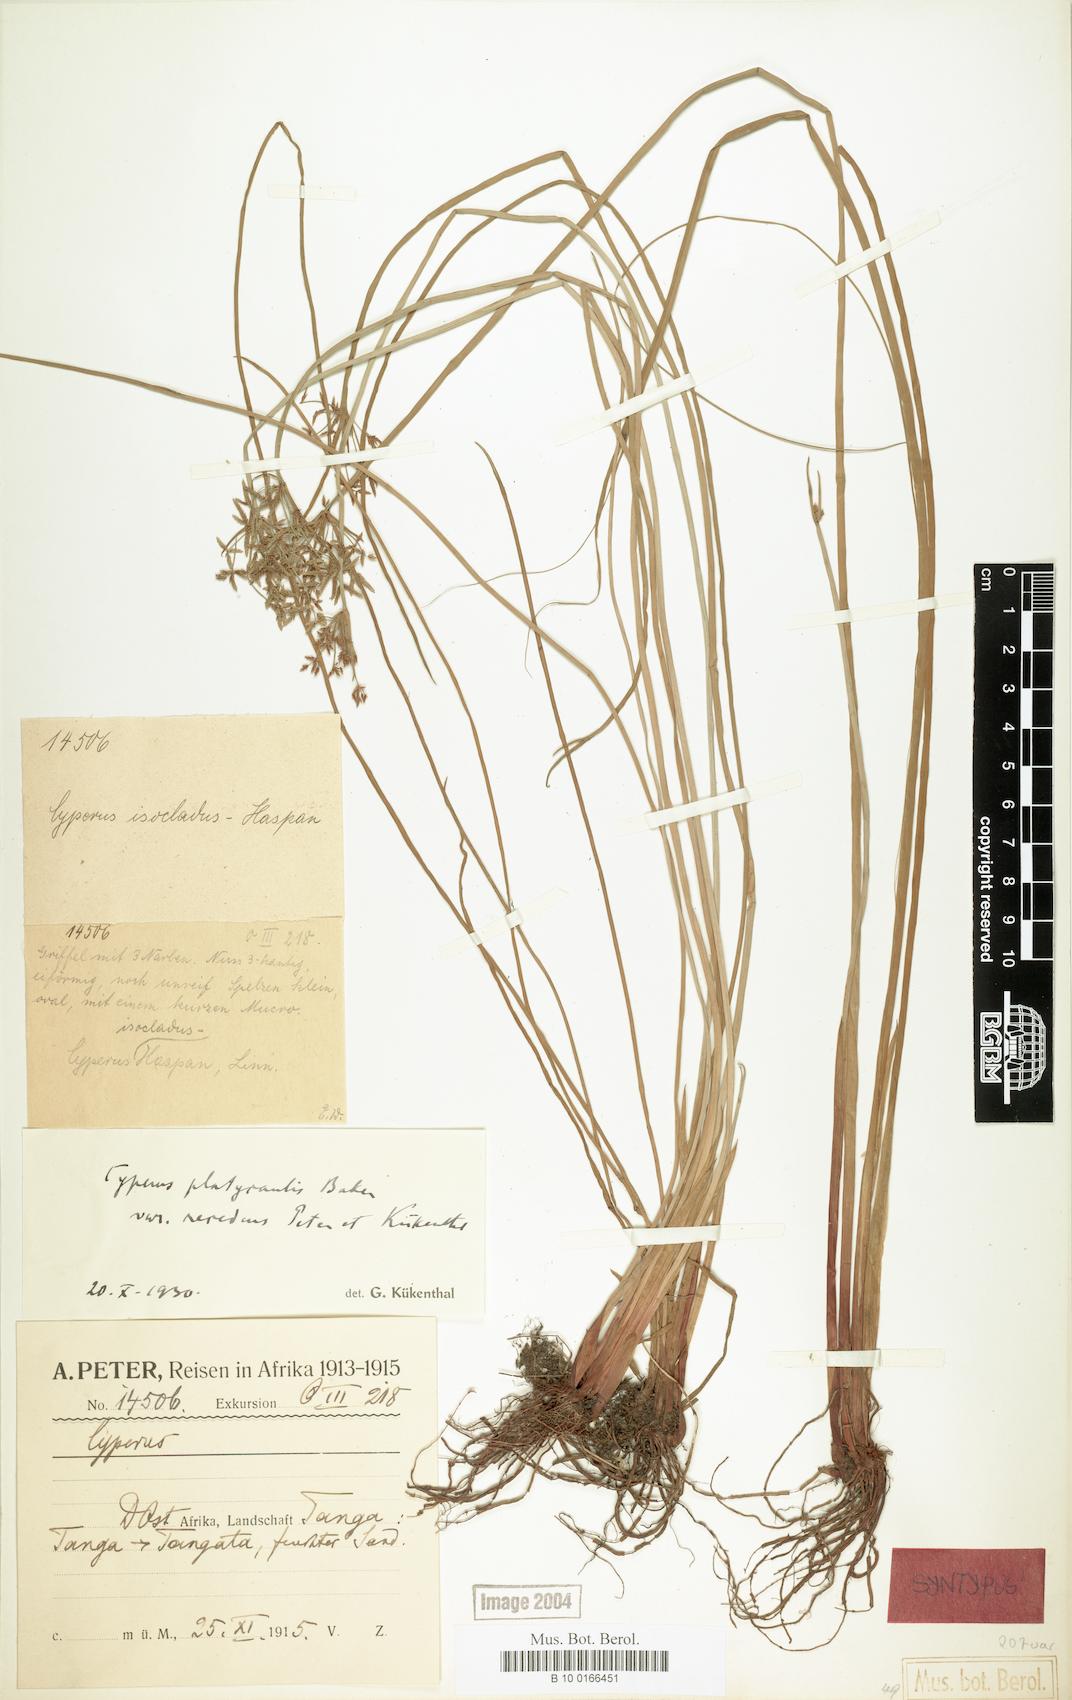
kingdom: Plantae
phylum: Tracheophyta
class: Liliopsida
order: Poales
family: Cyperaceae
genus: Cyperus
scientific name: Cyperus denudatus
